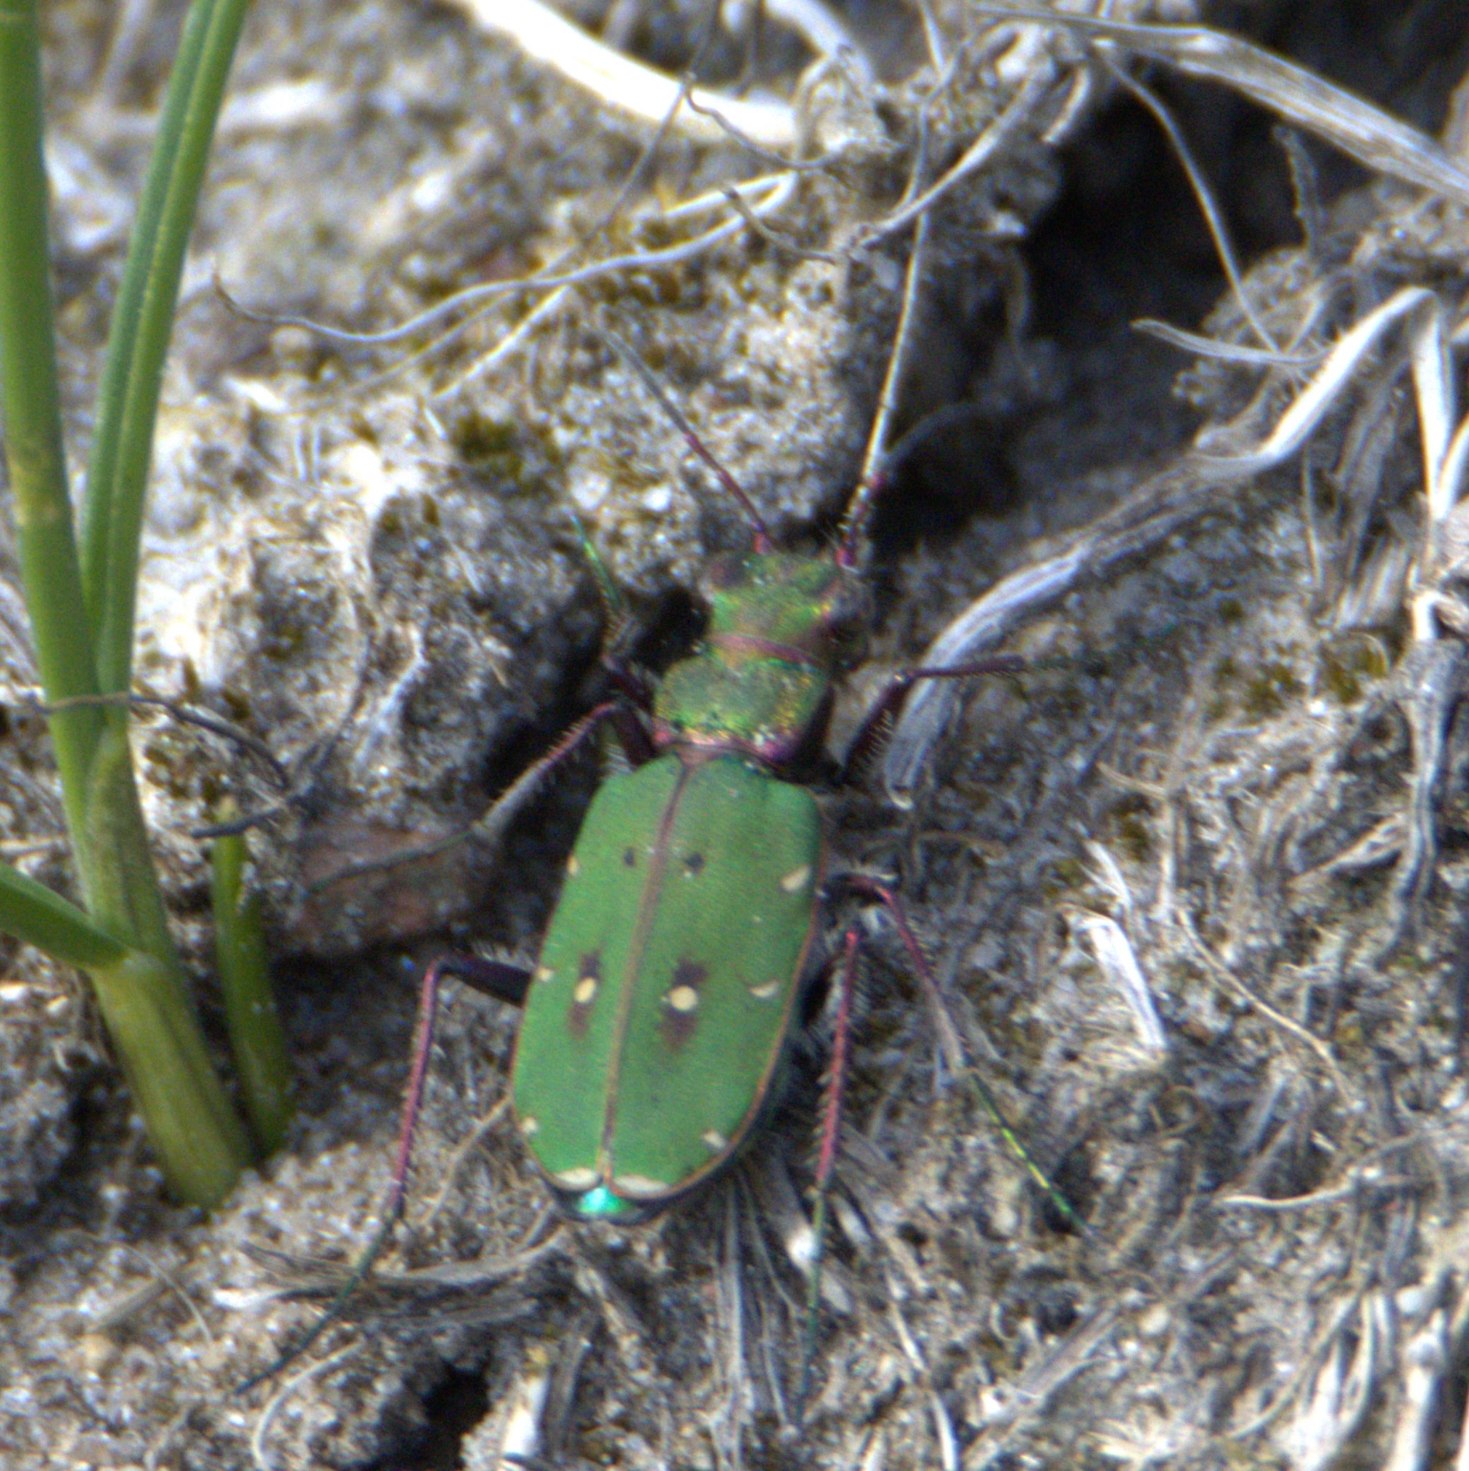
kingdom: Animalia
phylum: Arthropoda
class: Insecta
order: Coleoptera
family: Carabidae
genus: Cicindela
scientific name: Cicindela campestris
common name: Grøn sandspringer
